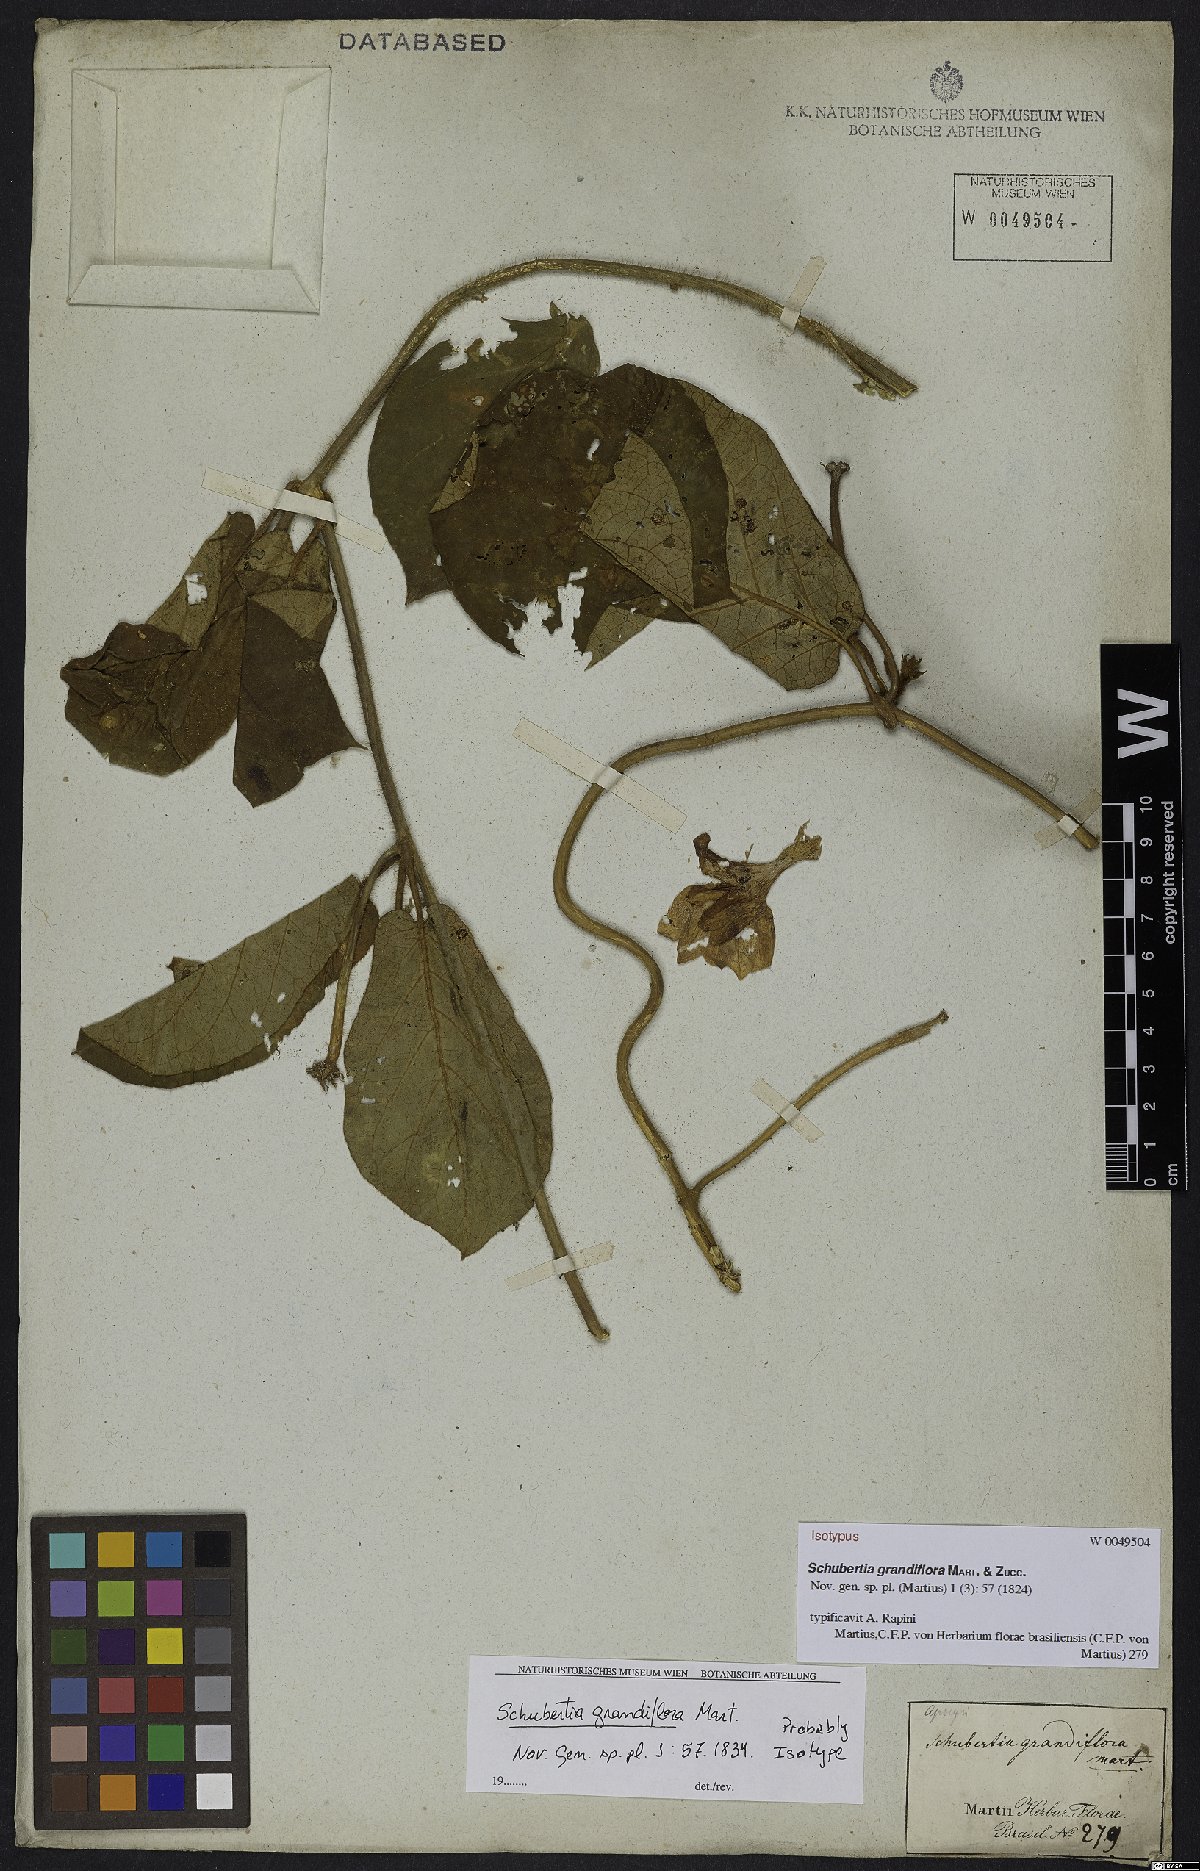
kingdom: Plantae
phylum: Tracheophyta
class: Magnoliopsida
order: Gentianales
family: Apocynaceae
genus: Schubertia
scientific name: Schubertia grandiflora
